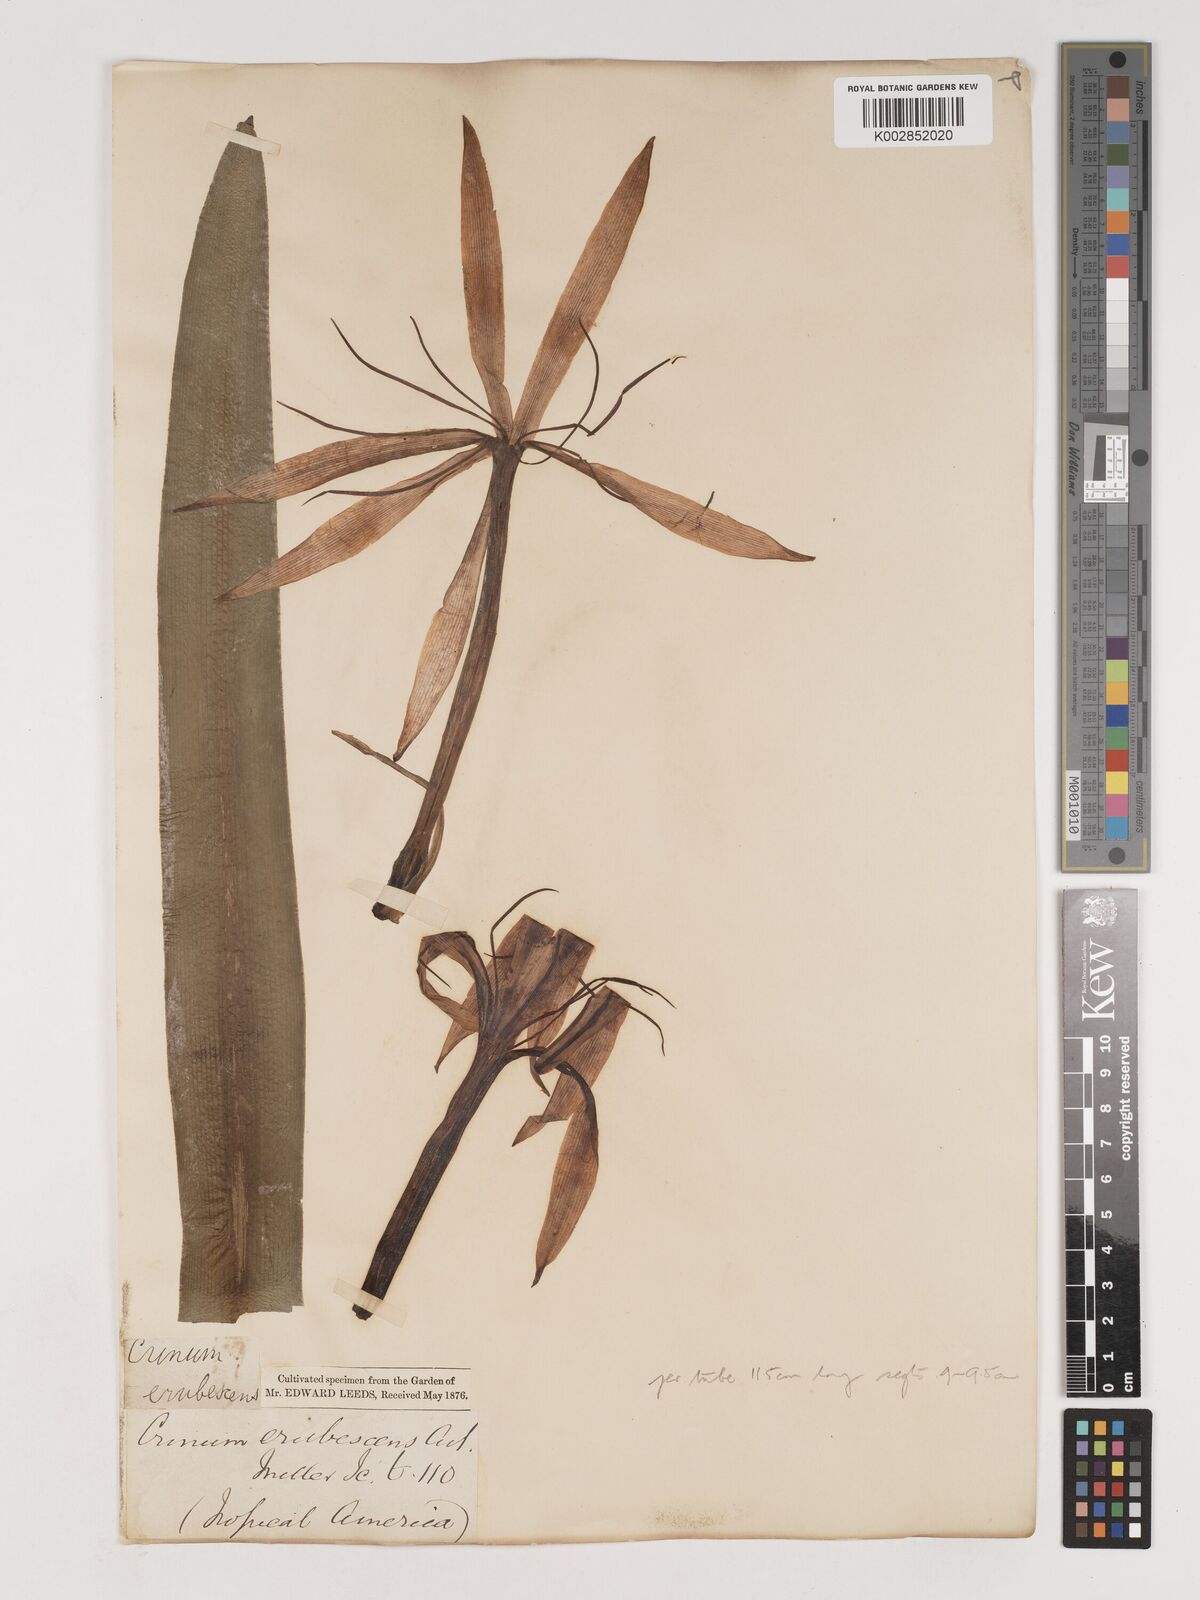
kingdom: Plantae
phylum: Tracheophyta
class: Liliopsida
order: Asparagales
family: Amaryllidaceae
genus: Crinum
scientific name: Crinum erubescens
